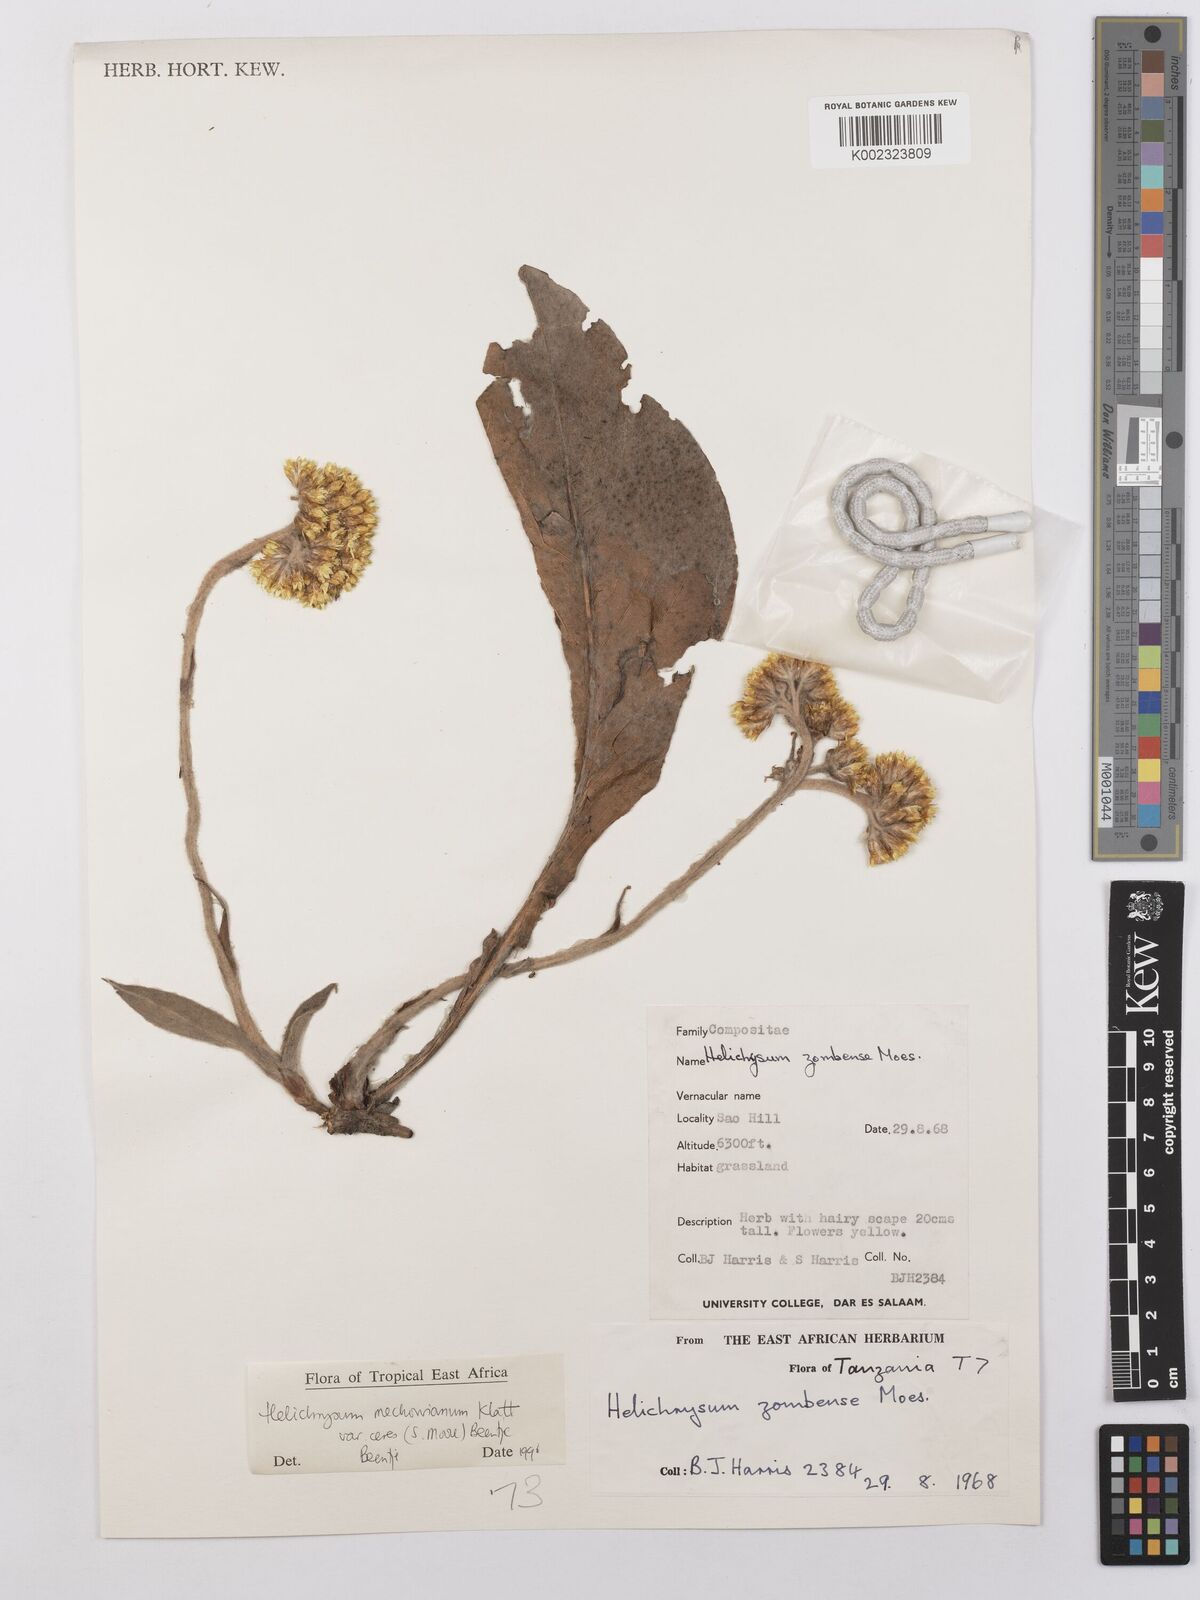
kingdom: Plantae
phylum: Tracheophyta
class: Magnoliopsida
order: Asterales
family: Asteraceae
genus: Helichrysum
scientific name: Helichrysum mechowianum
